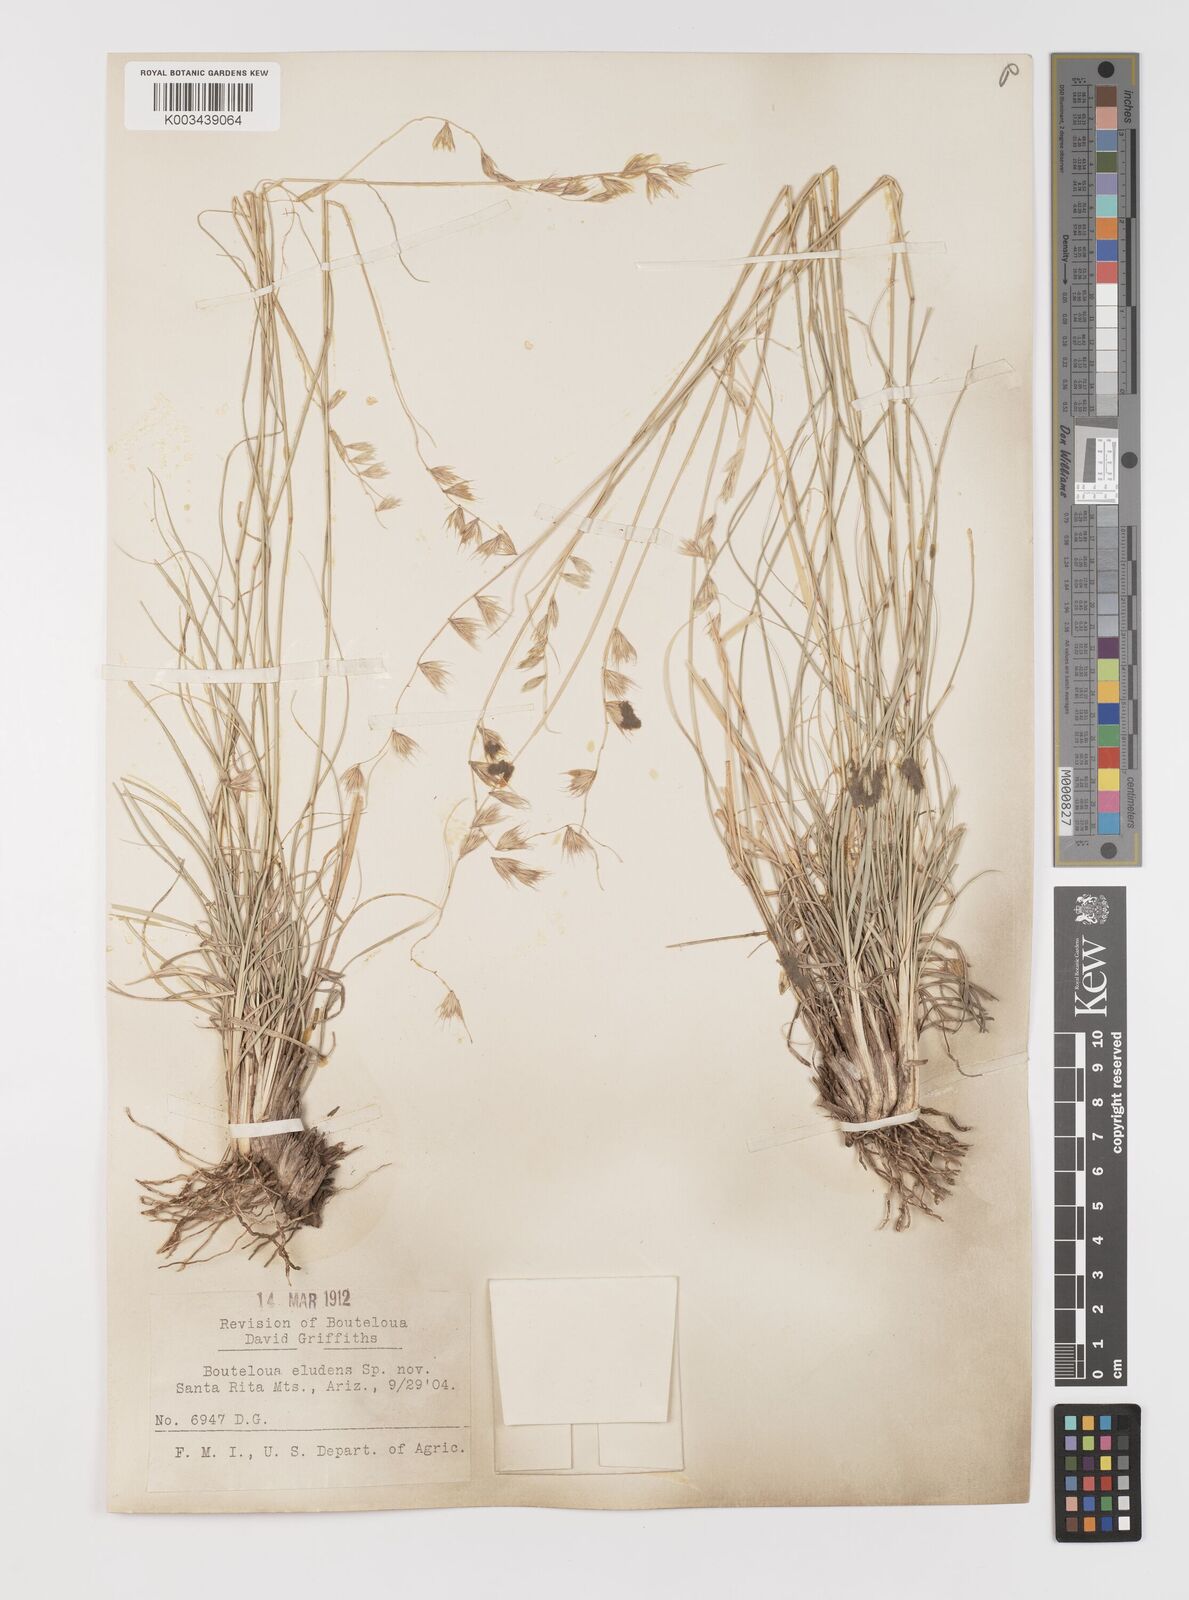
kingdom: Plantae
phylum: Tracheophyta
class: Liliopsida
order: Poales
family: Poaceae
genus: Bouteloua
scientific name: Bouteloua eludens
